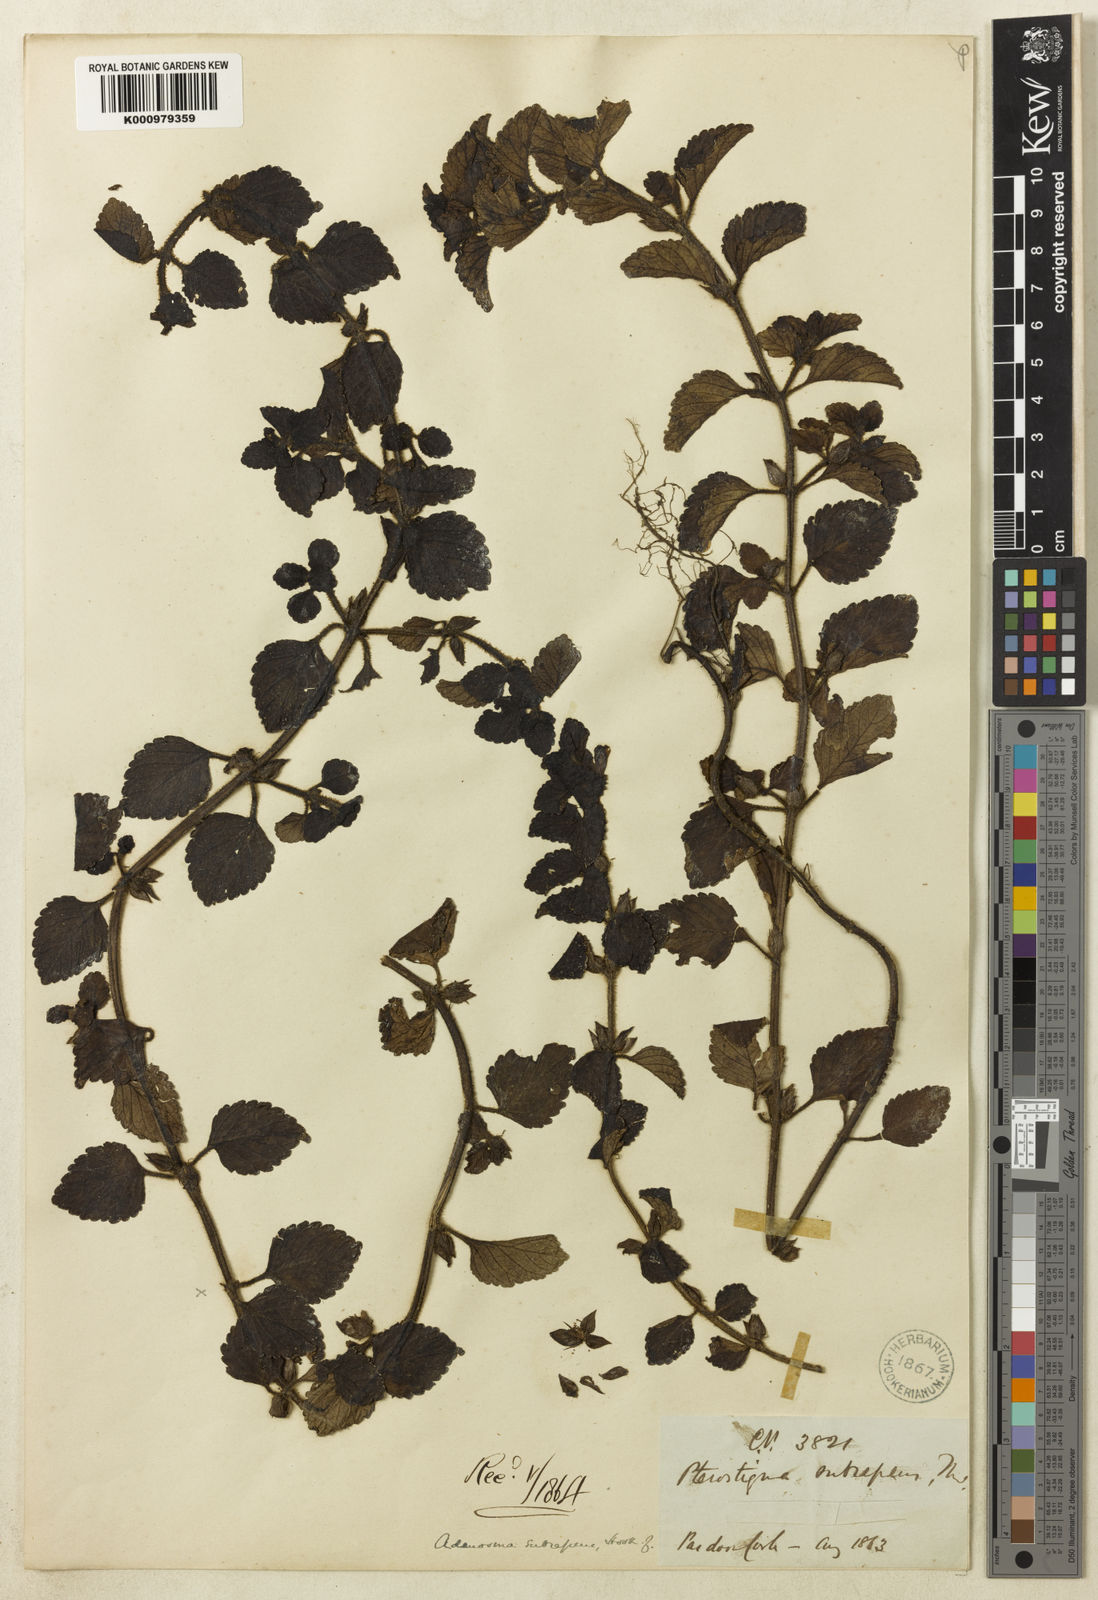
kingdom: Plantae
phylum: Tracheophyta
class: Magnoliopsida
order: Lamiales
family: Plantaginaceae
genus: Adenosma
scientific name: Adenosma subrepens
